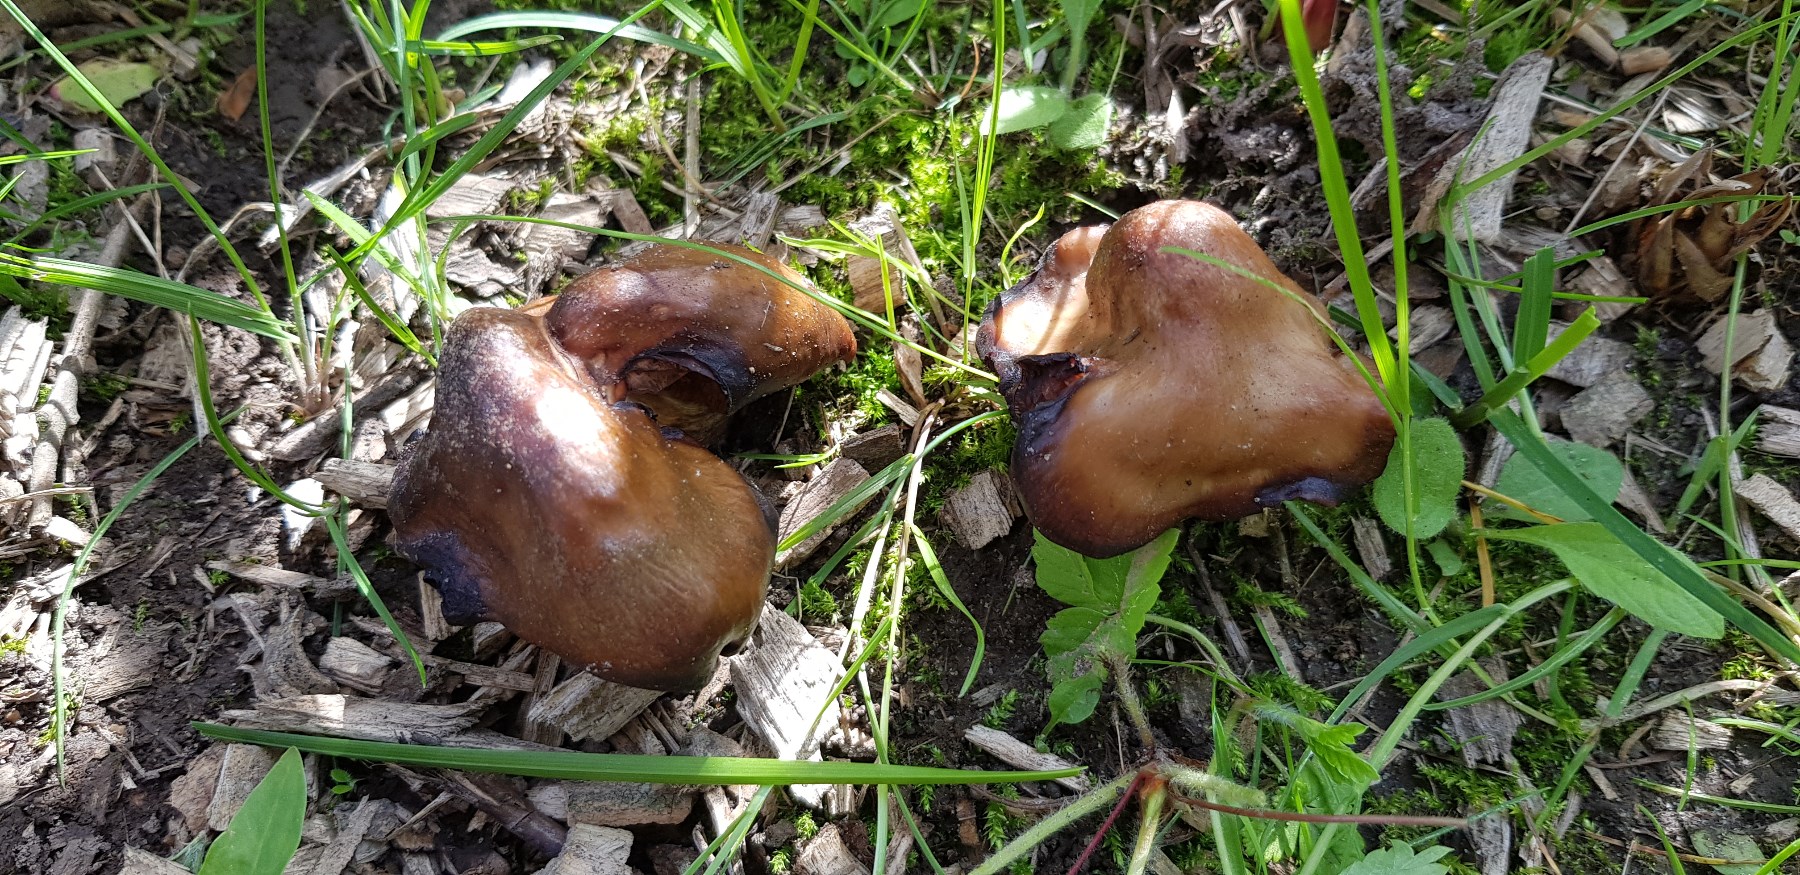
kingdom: Fungi
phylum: Basidiomycota
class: Agaricomycetes
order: Agaricales
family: Entolomataceae
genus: Entoloma
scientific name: Entoloma clypeatum
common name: flammet rødblad
